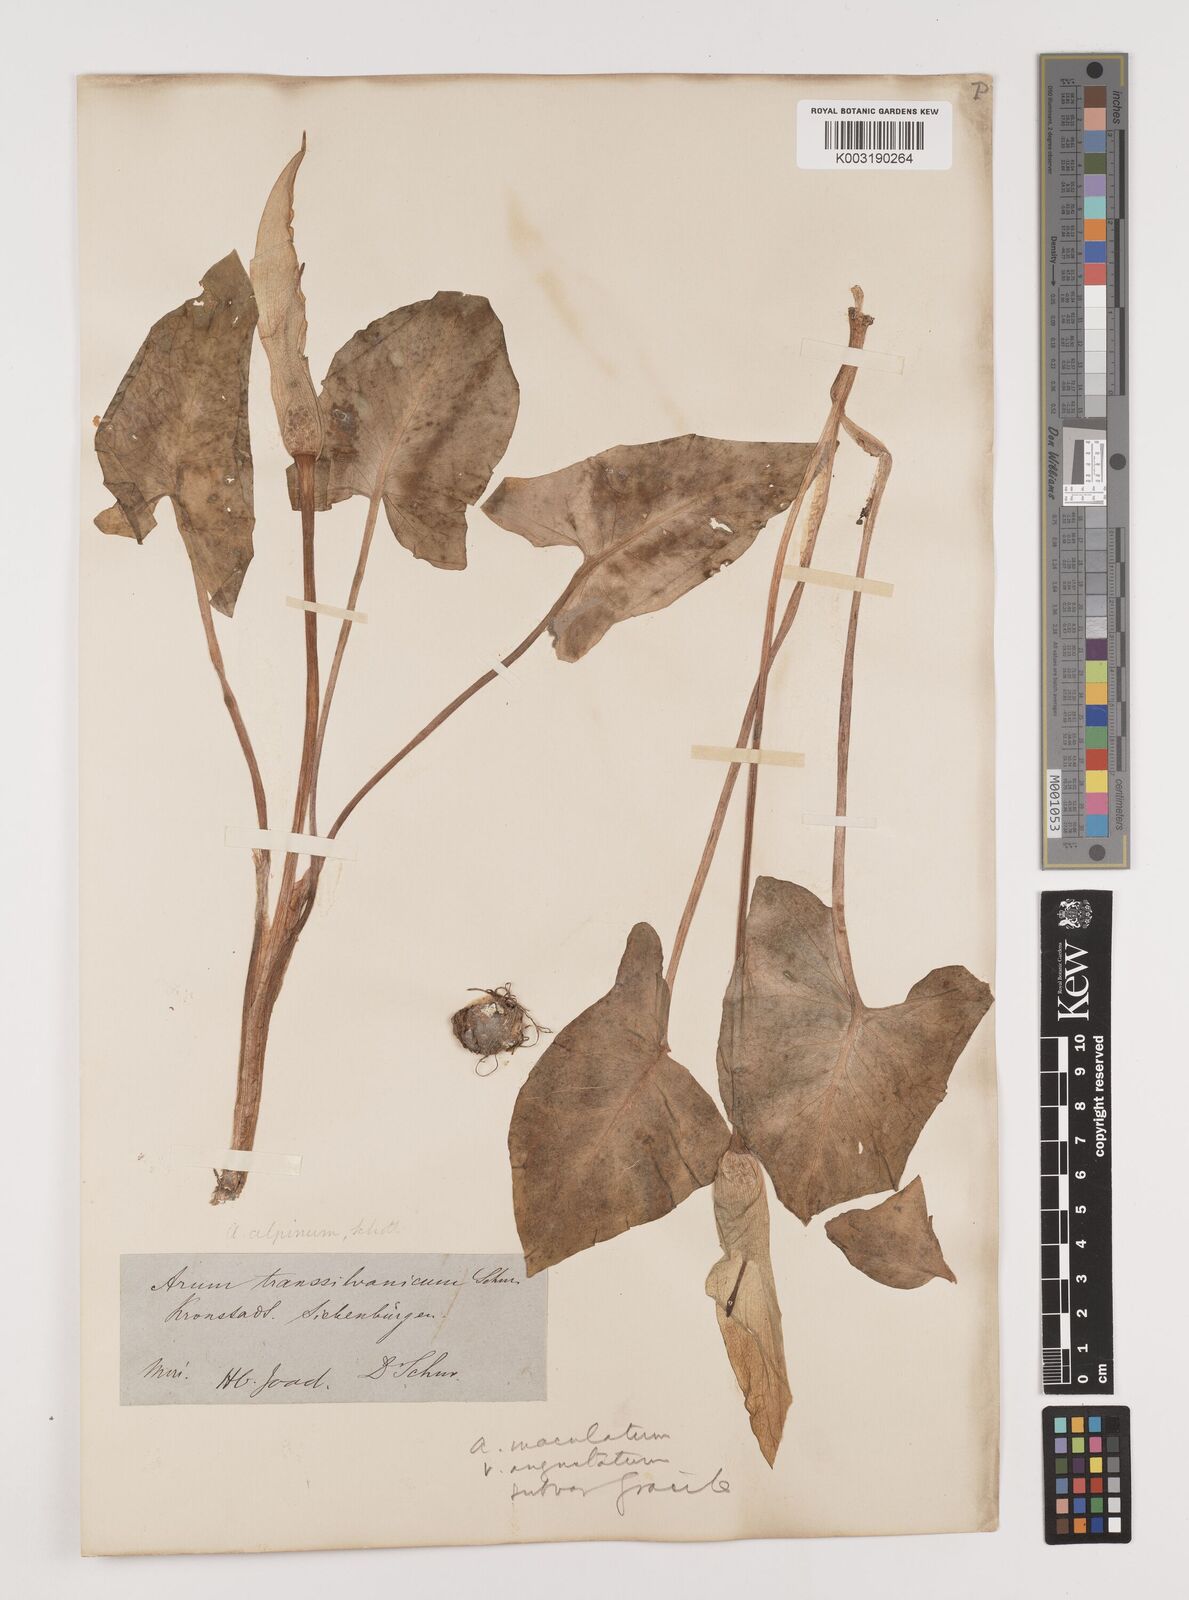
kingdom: Plantae
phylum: Tracheophyta
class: Liliopsida
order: Alismatales
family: Araceae
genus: Arum
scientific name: Arum cylindraceum
